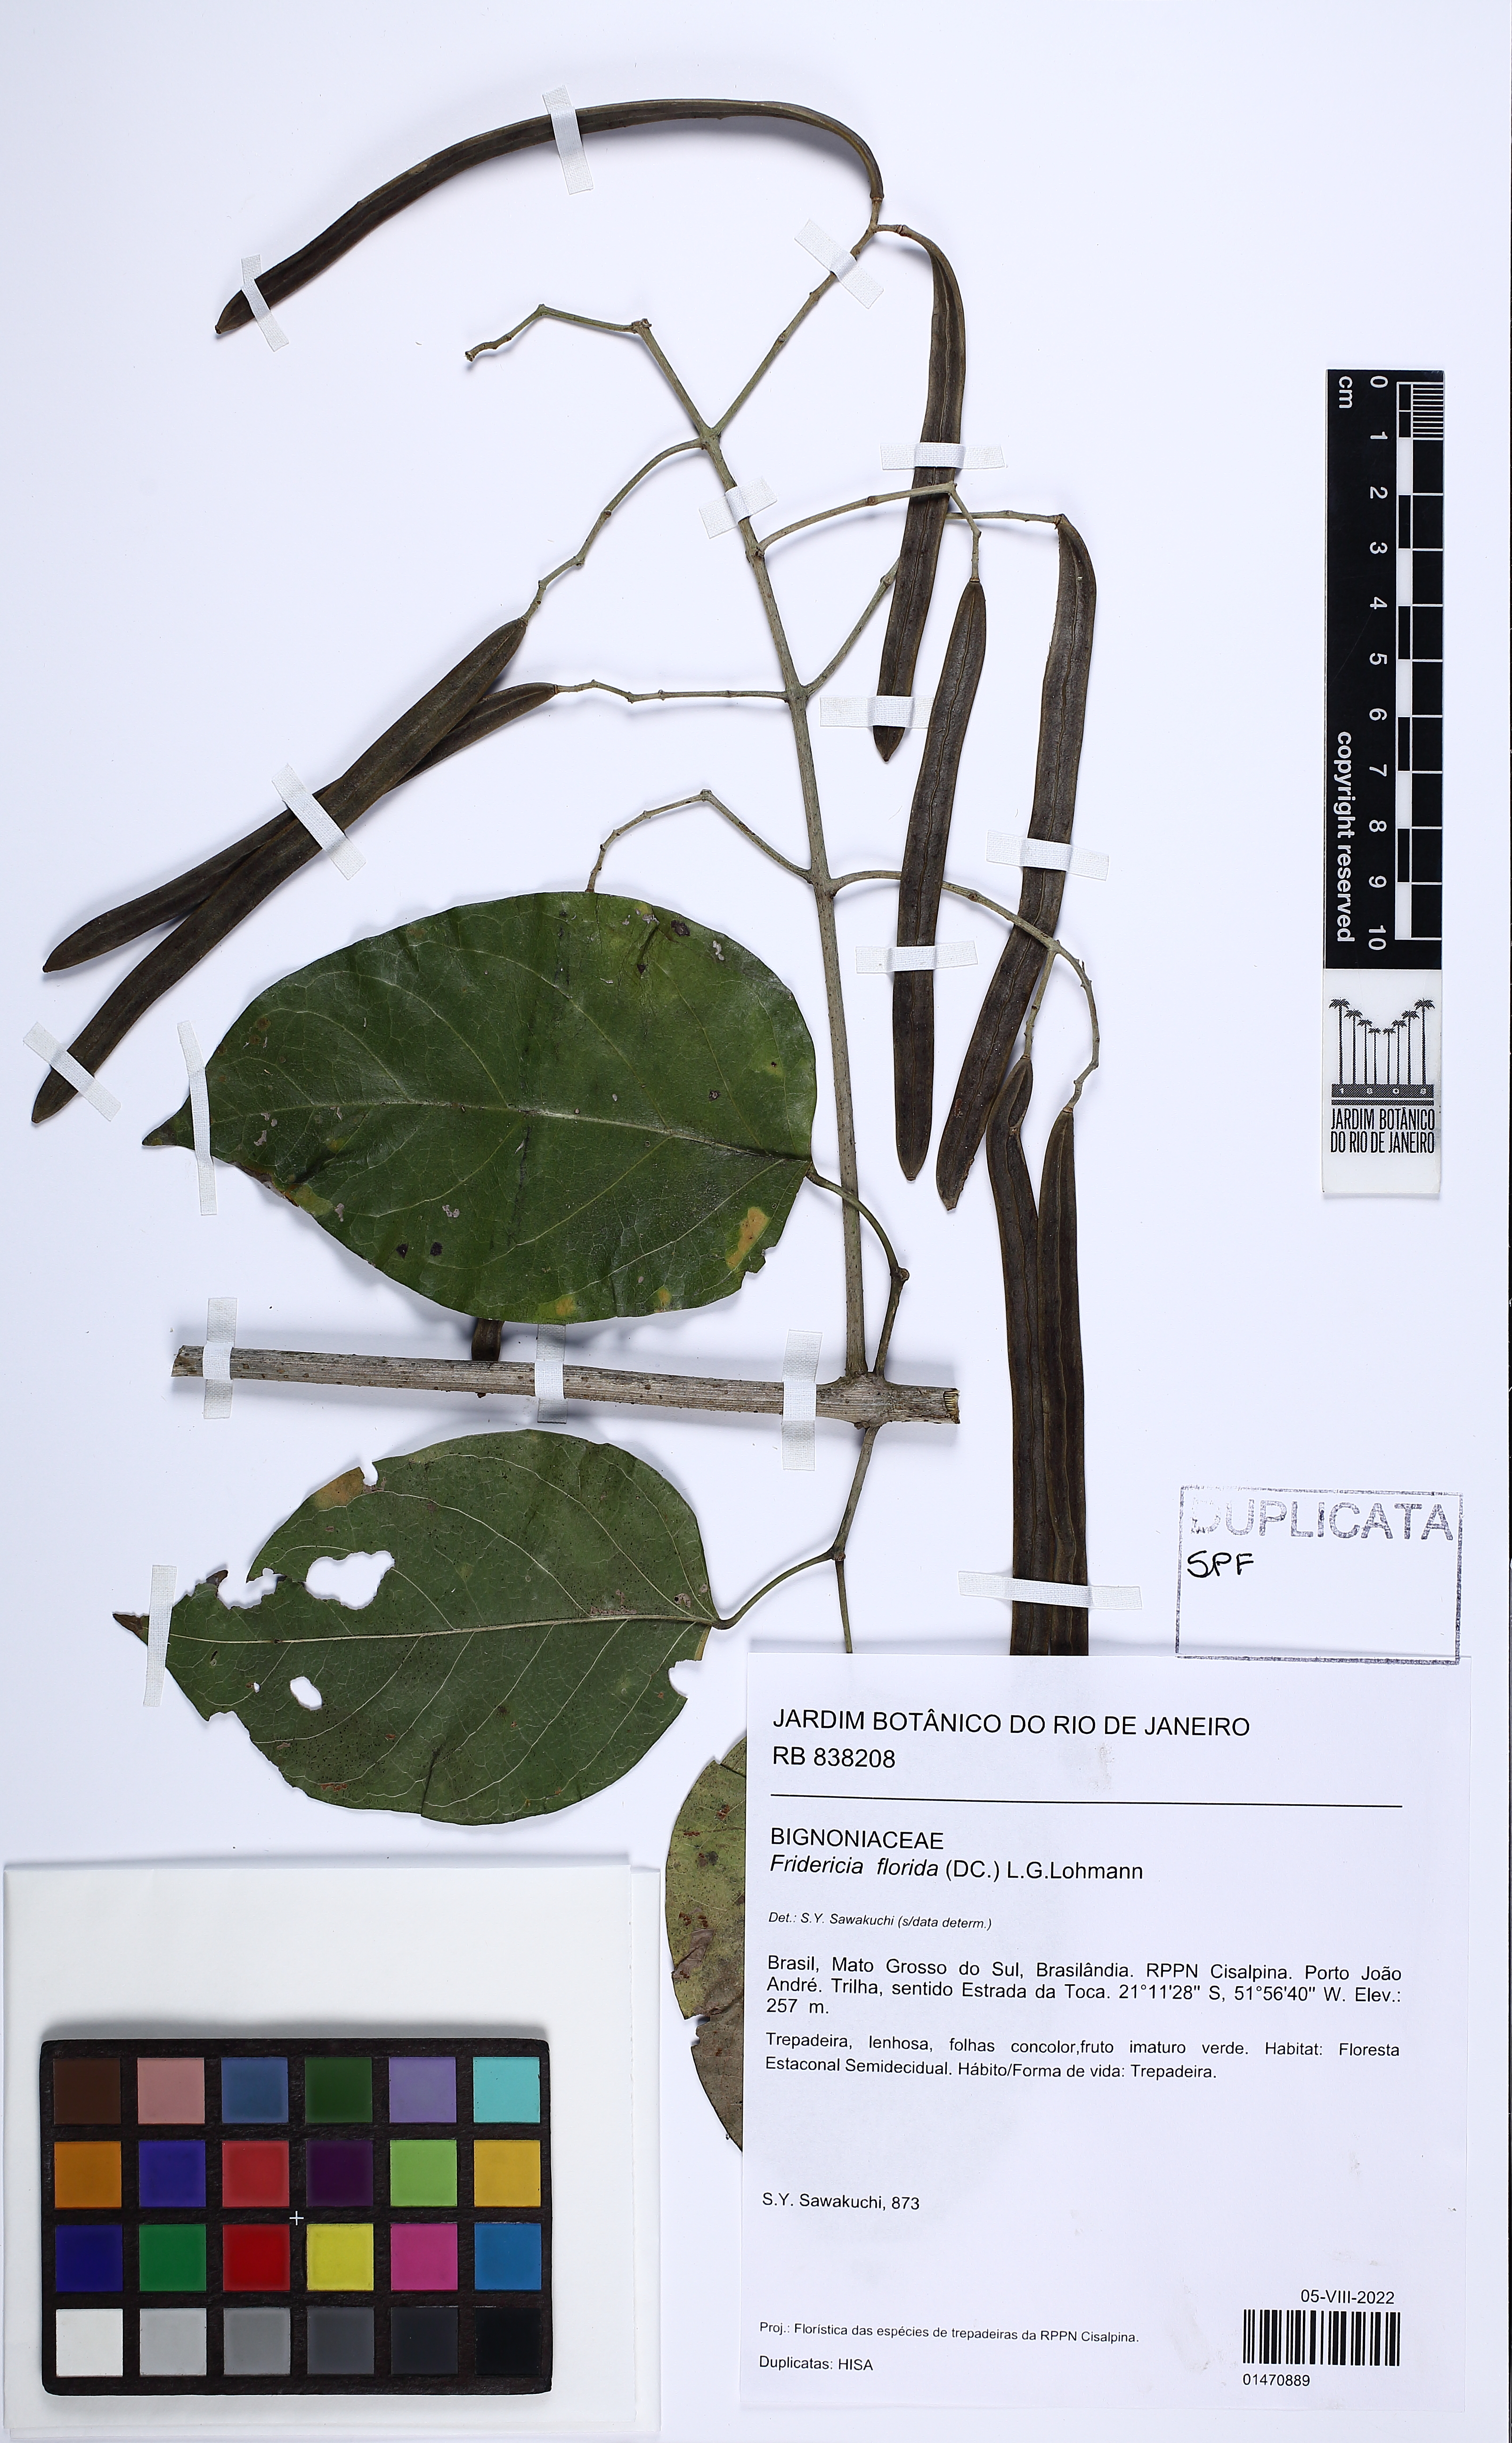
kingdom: Plantae
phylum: Tracheophyta
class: Magnoliopsida
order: Lamiales
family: Bignoniaceae
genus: Fridericia
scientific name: Fridericia florida
